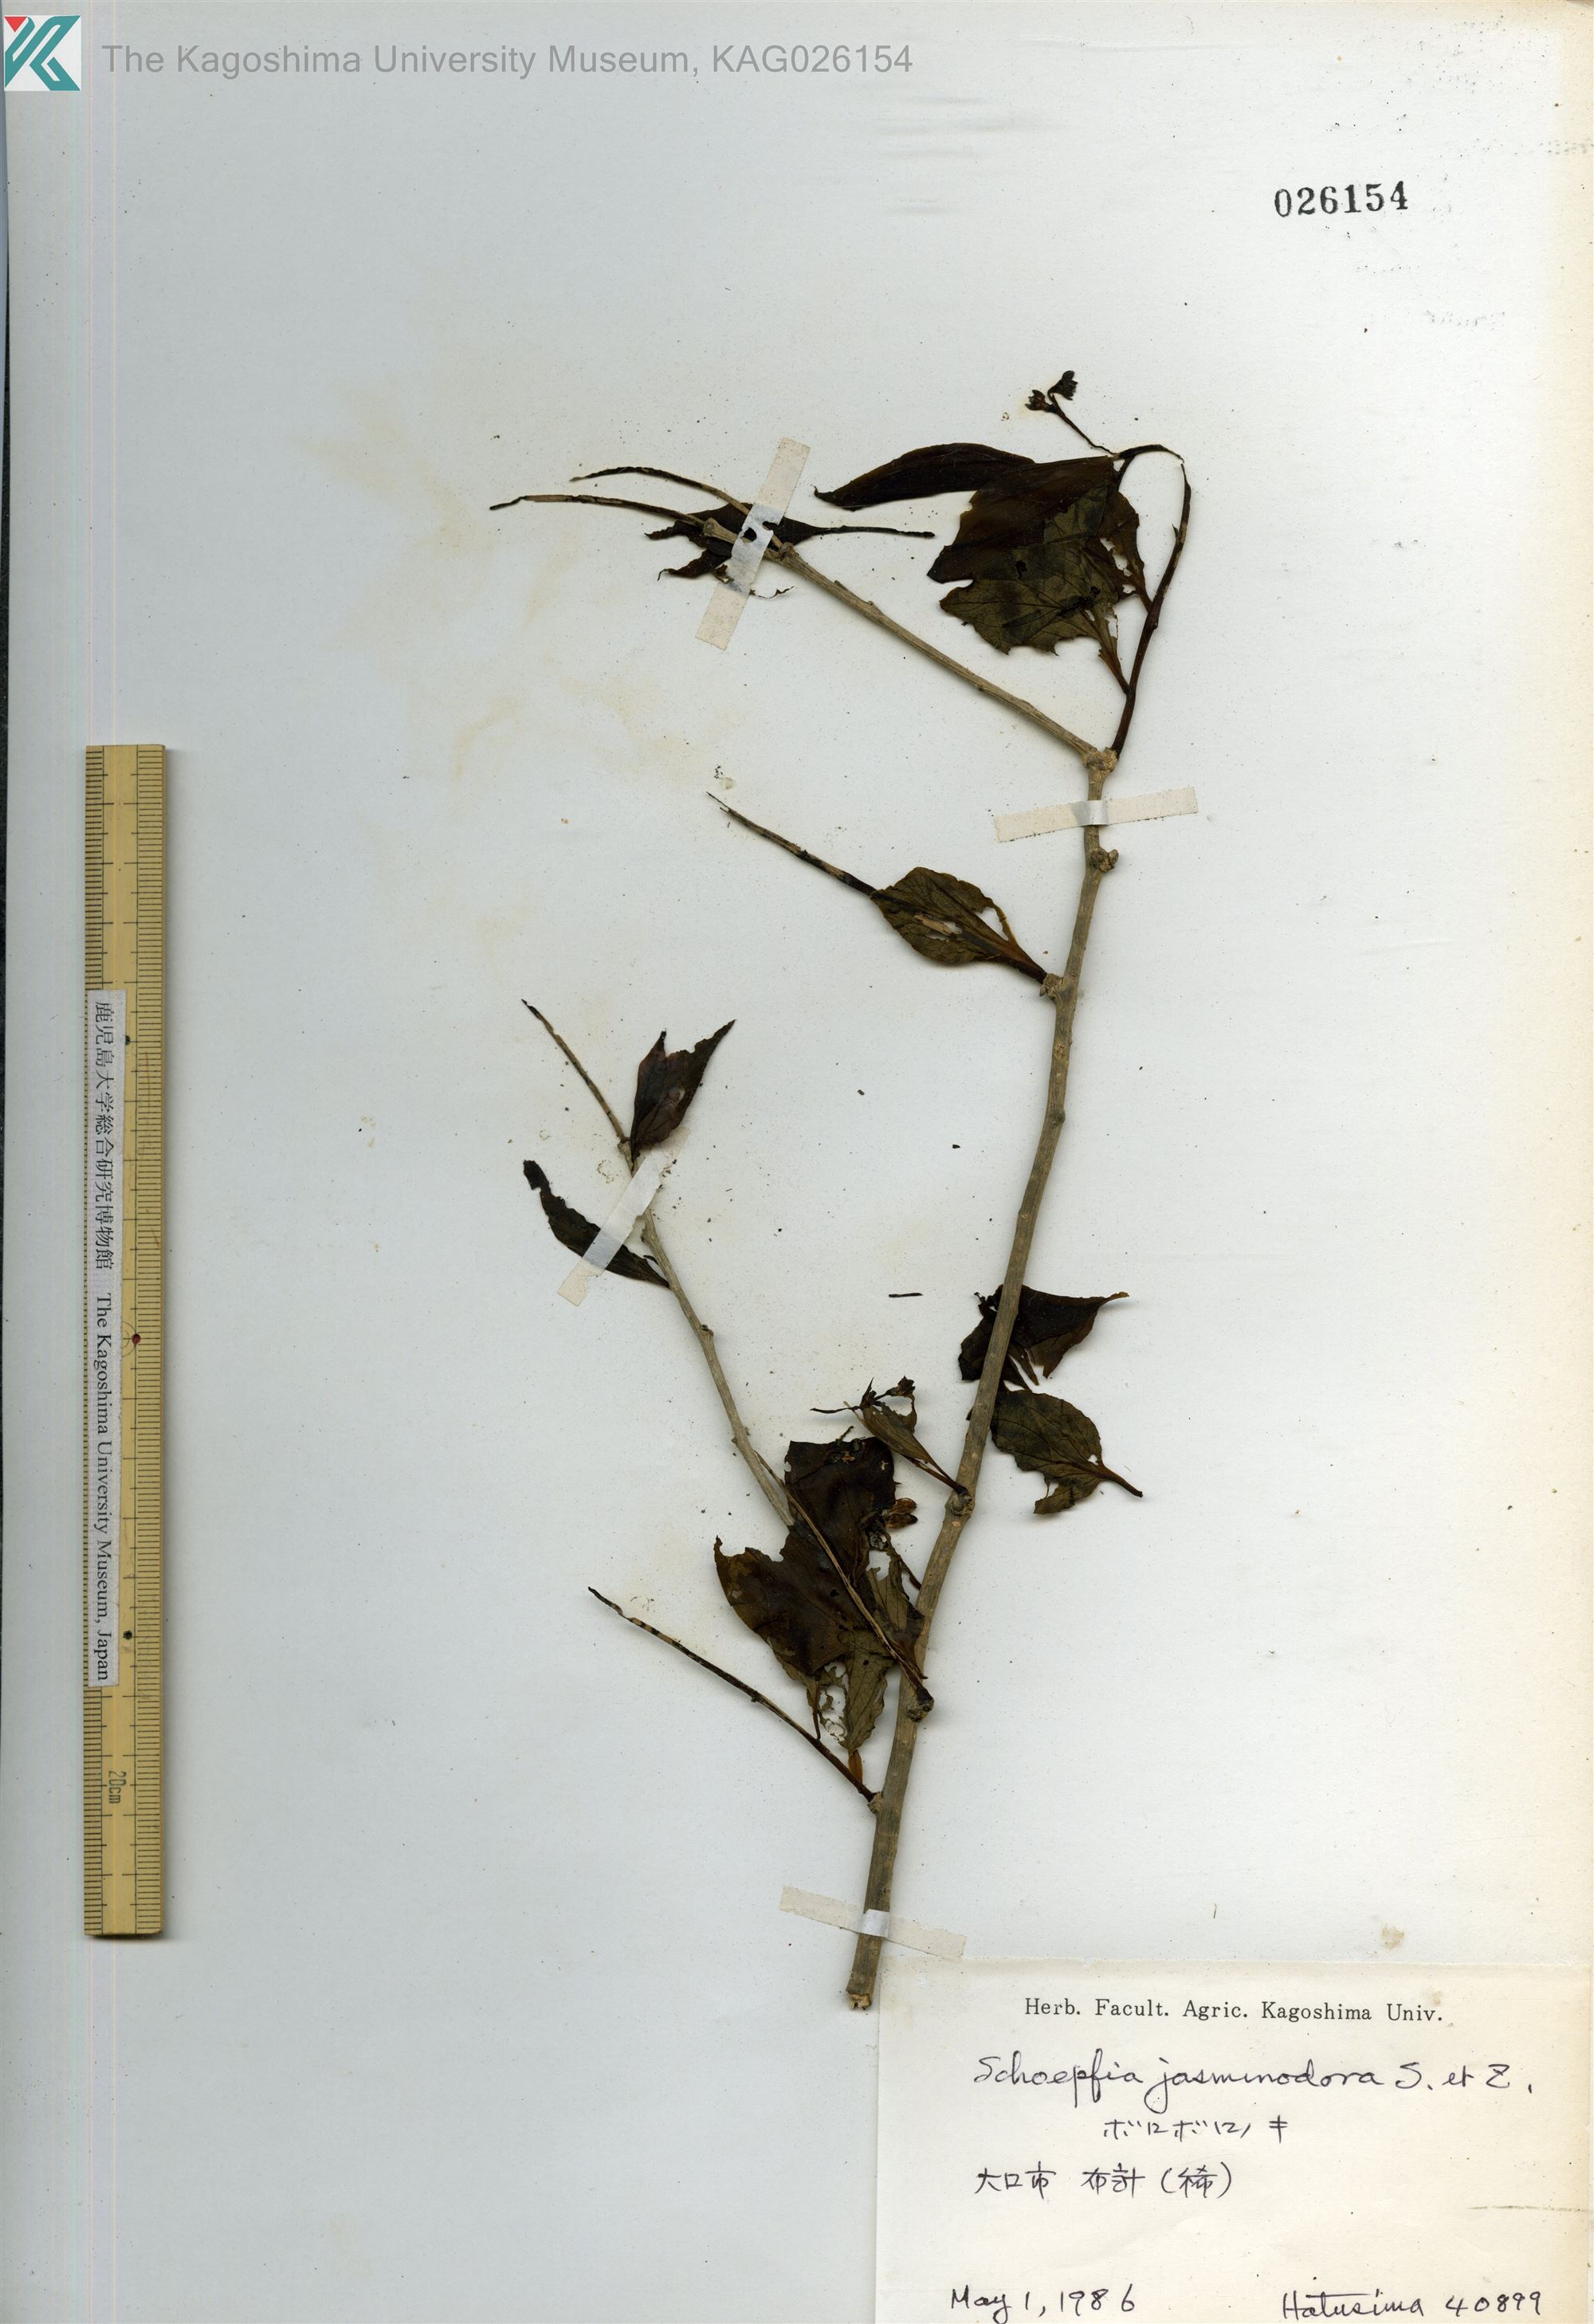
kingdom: Plantae
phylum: Tracheophyta
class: Magnoliopsida
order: Santalales
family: Schoepfiaceae
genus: Schoepfia
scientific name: Schoepfia jasminodora
